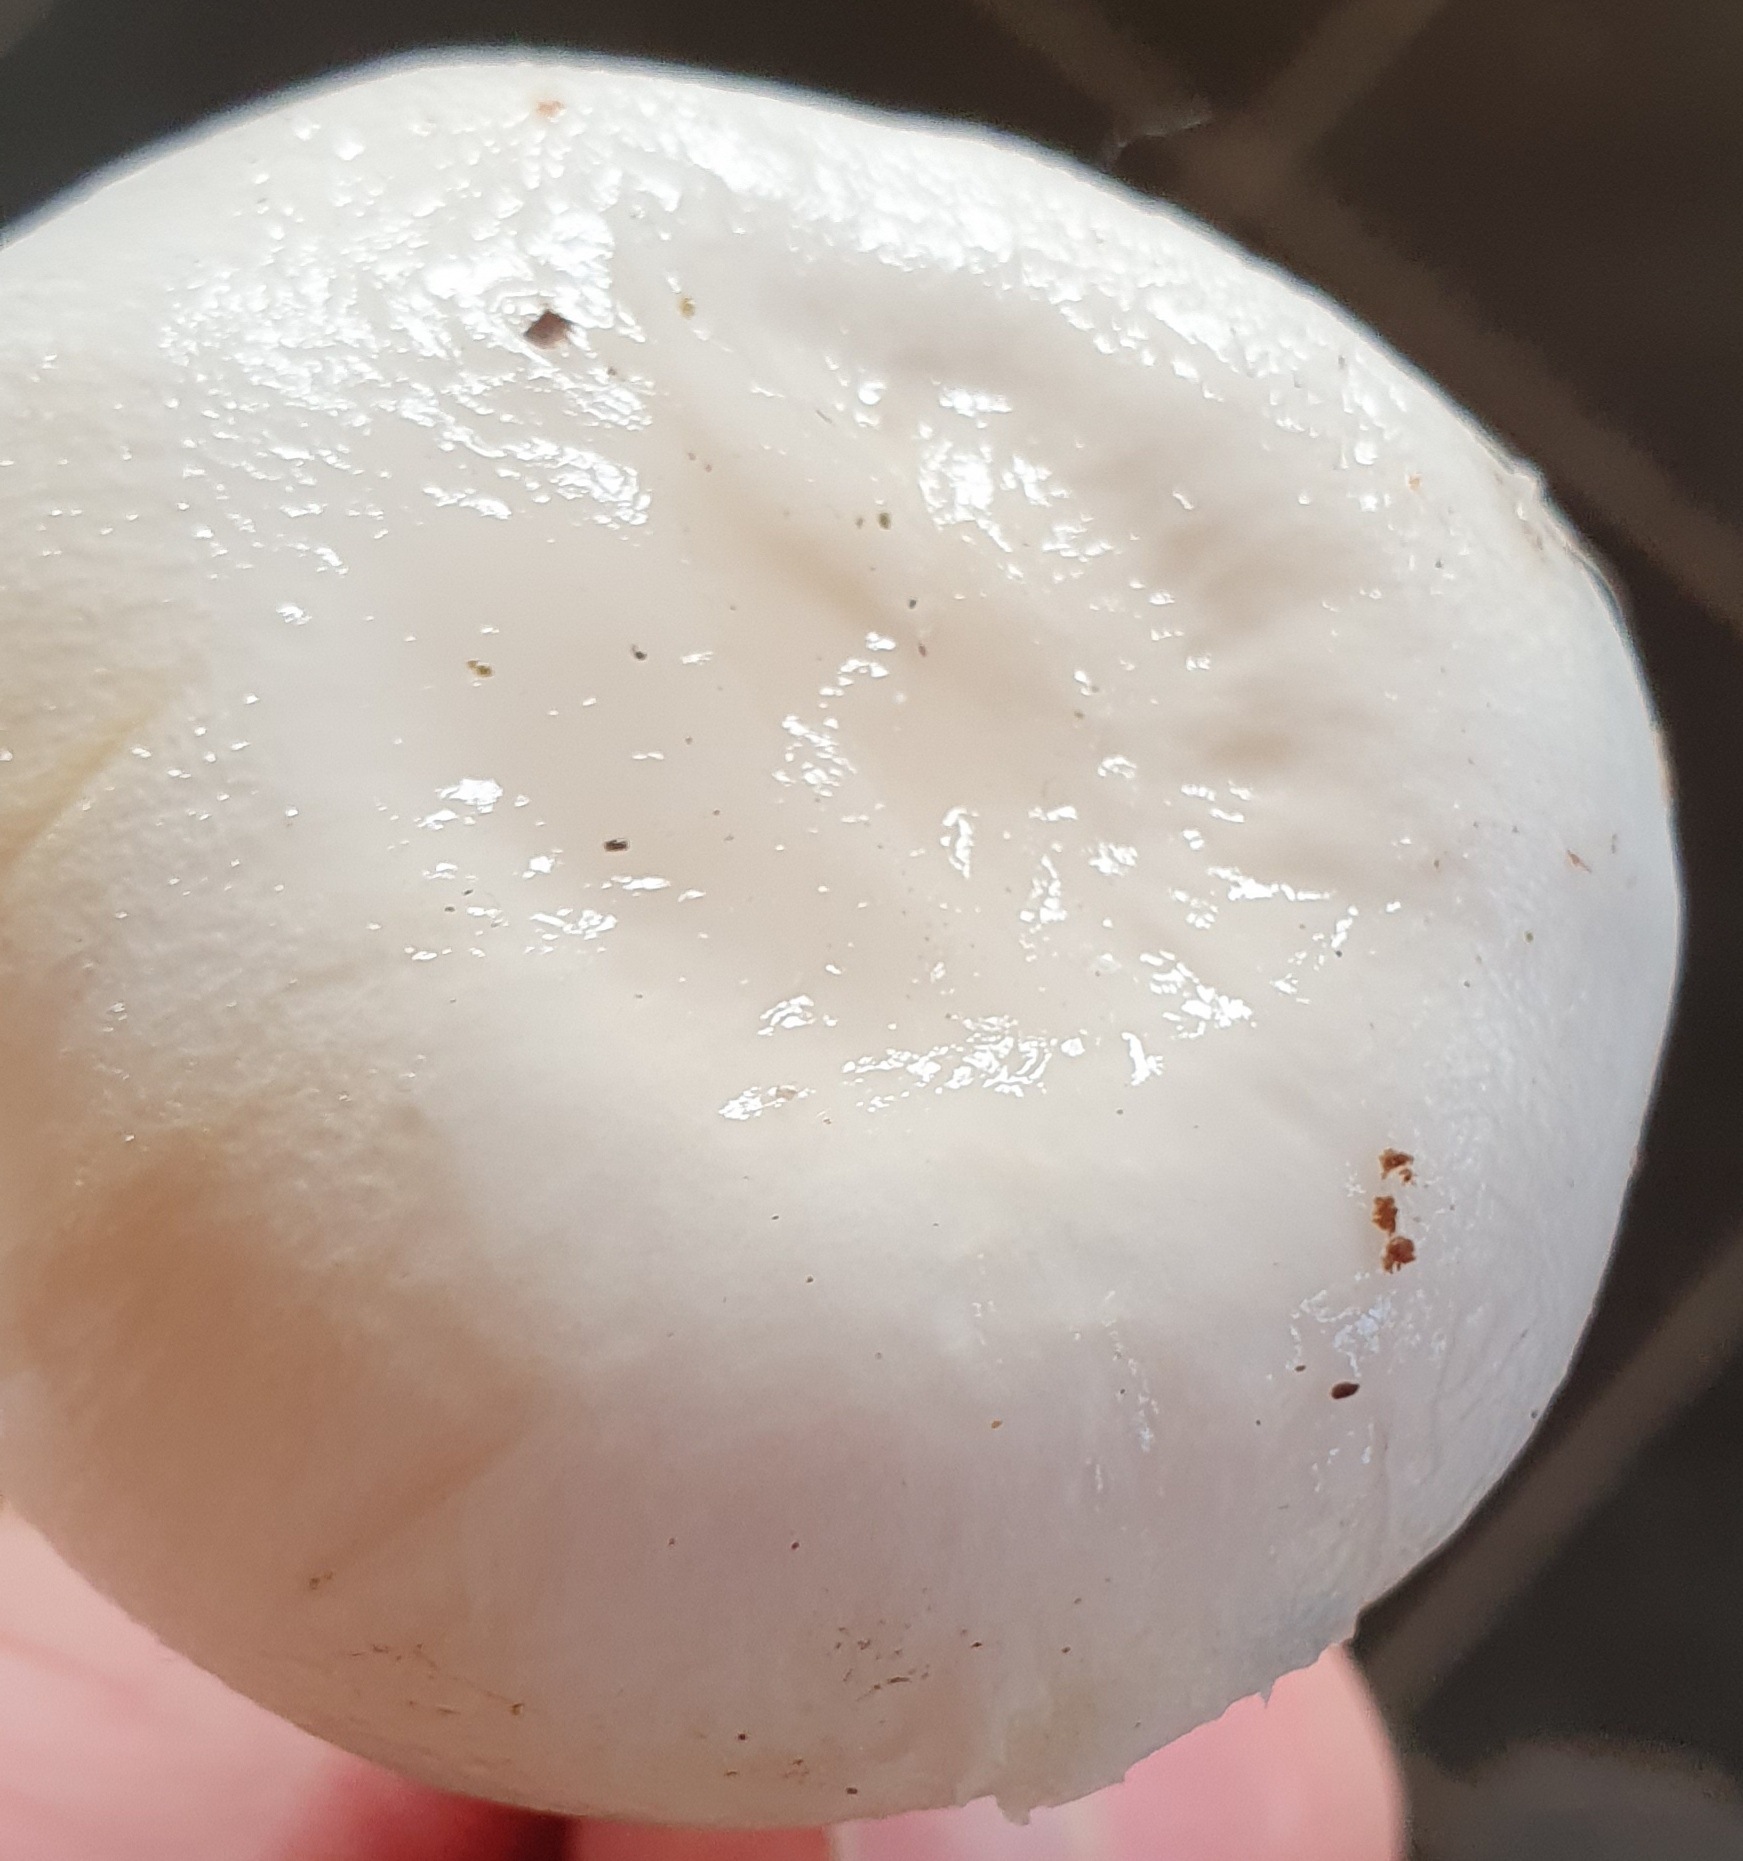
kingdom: Fungi
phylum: Basidiomycota
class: Agaricomycetes
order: Agaricales
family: Hygrophoraceae
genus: Hygrophorus
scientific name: Hygrophorus
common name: sneglehat
